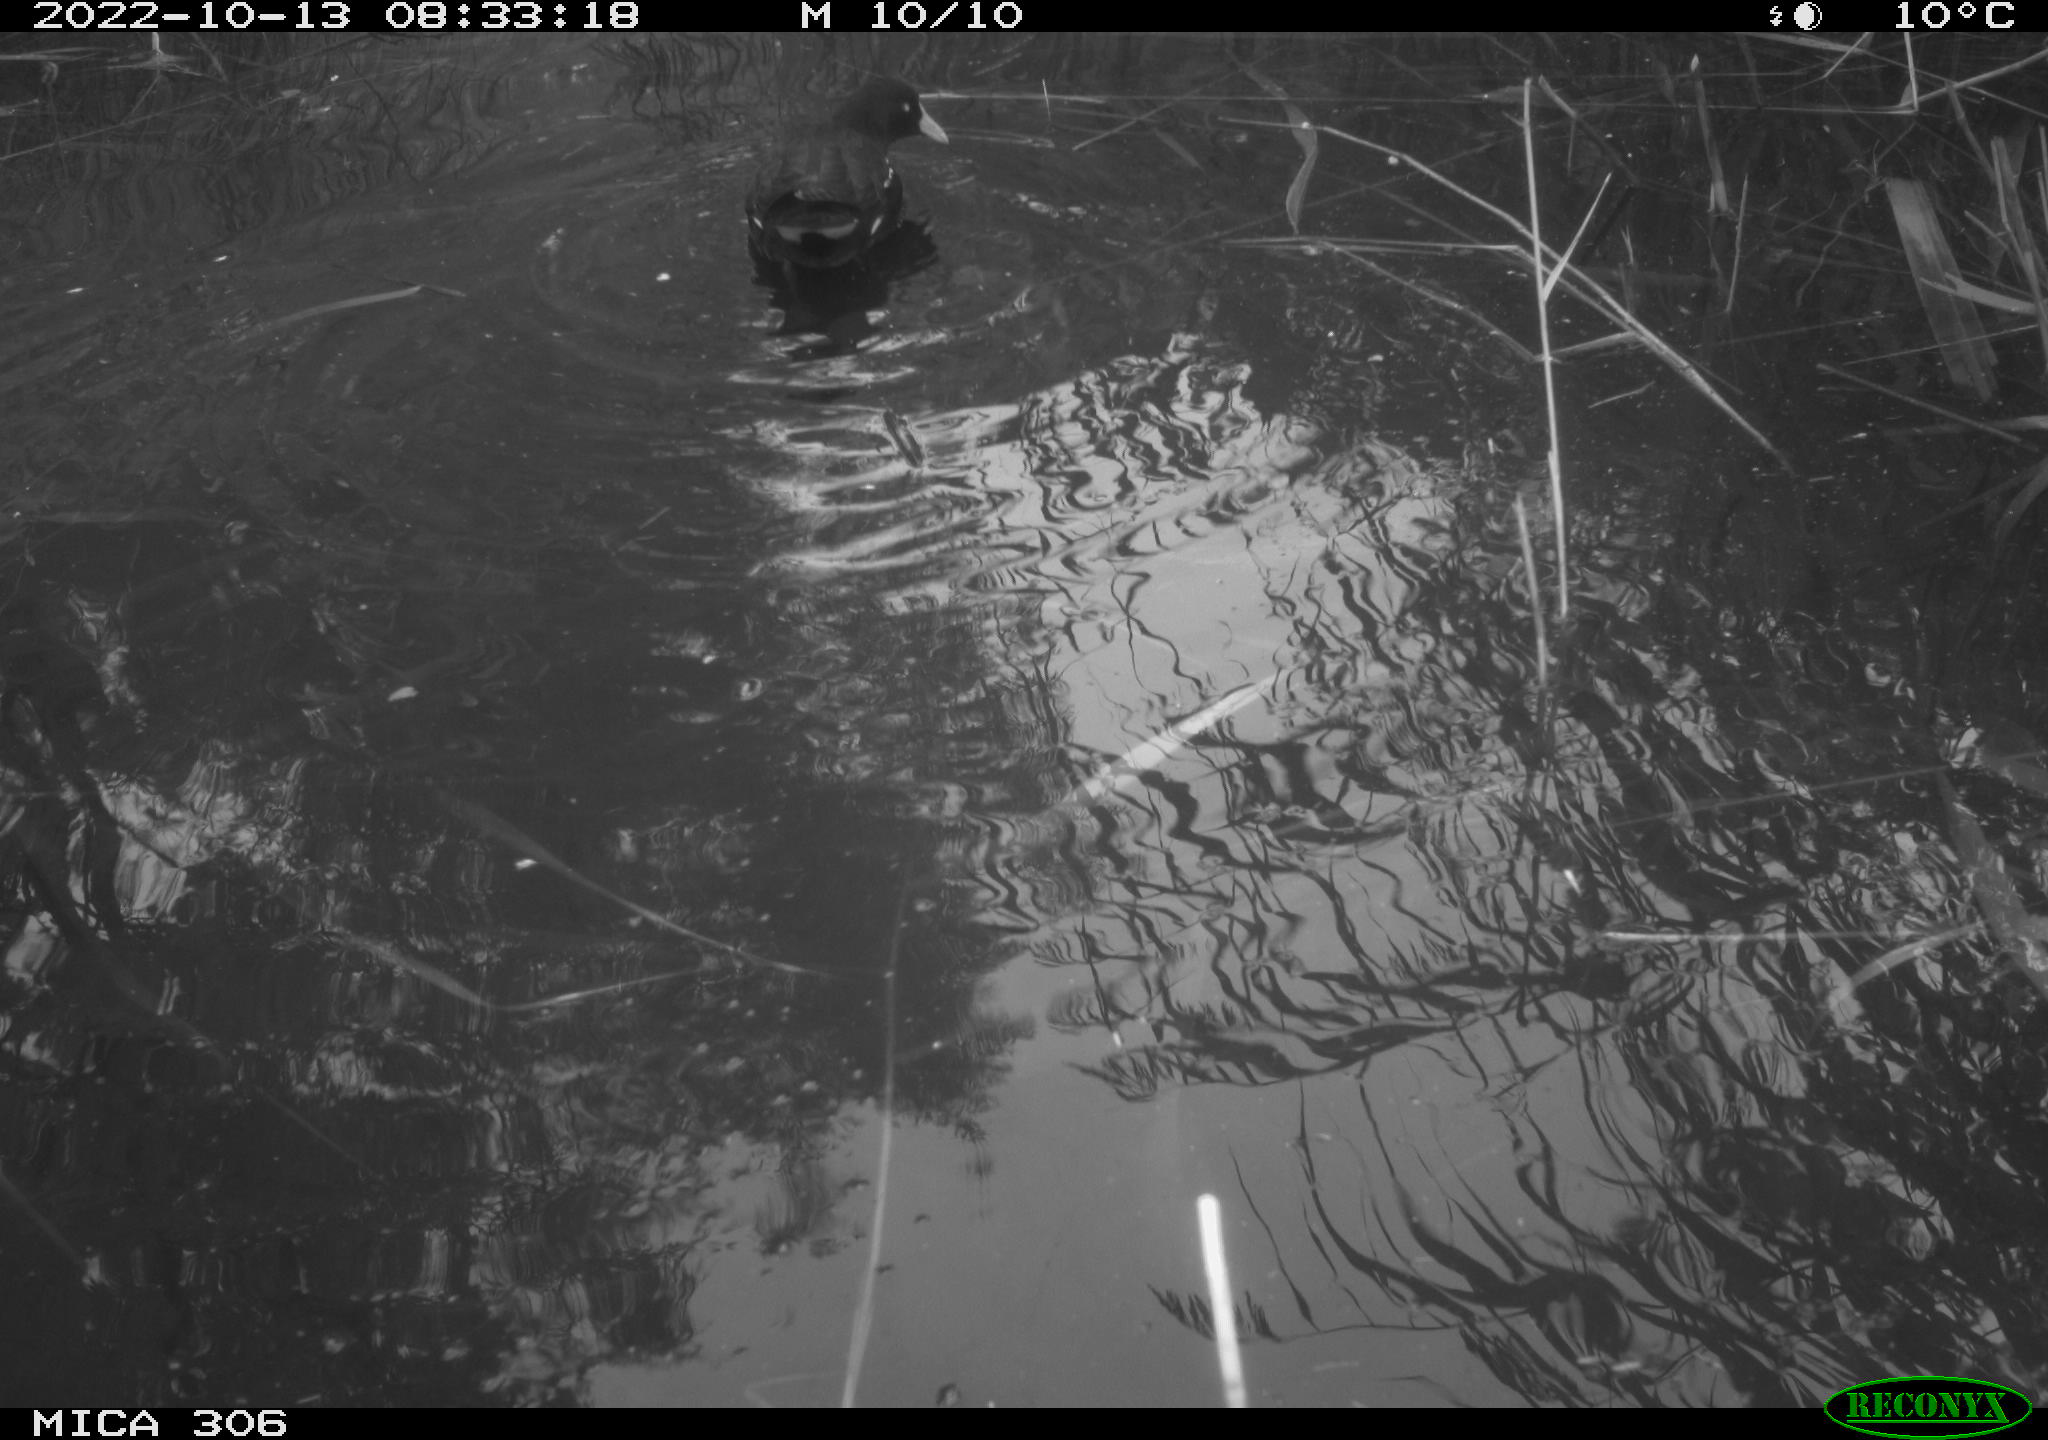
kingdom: Animalia
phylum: Chordata
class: Aves
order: Gruiformes
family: Rallidae
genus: Gallinula
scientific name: Gallinula chloropus
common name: Common moorhen
